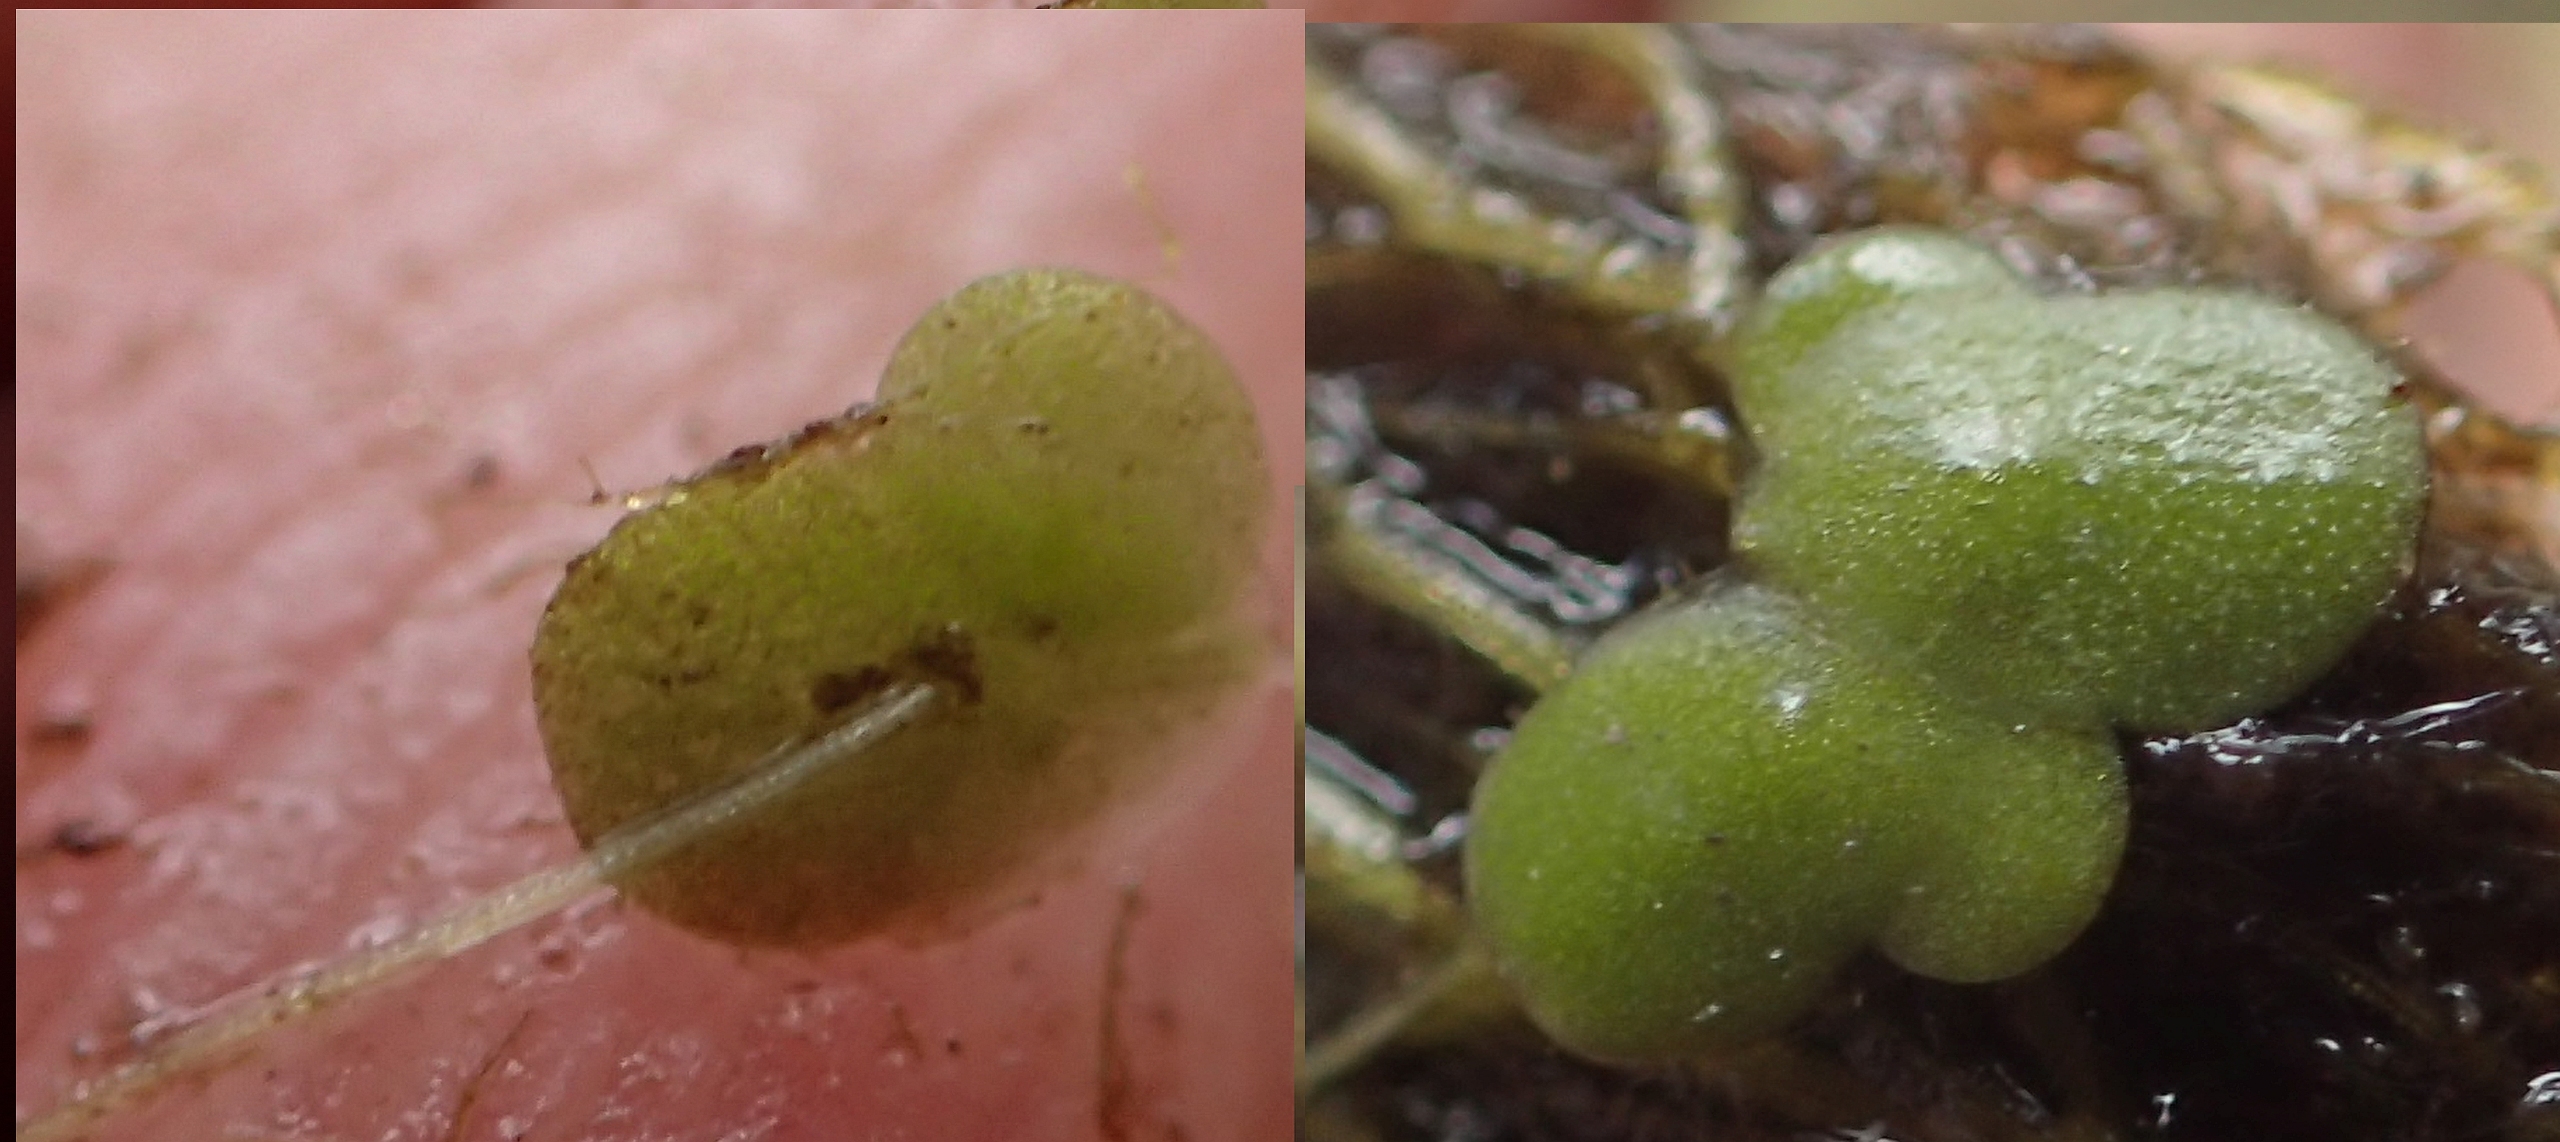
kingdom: Plantae
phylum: Tracheophyta
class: Liliopsida
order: Alismatales
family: Araceae
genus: Lemna
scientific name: Lemna minor
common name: Liden andemad
